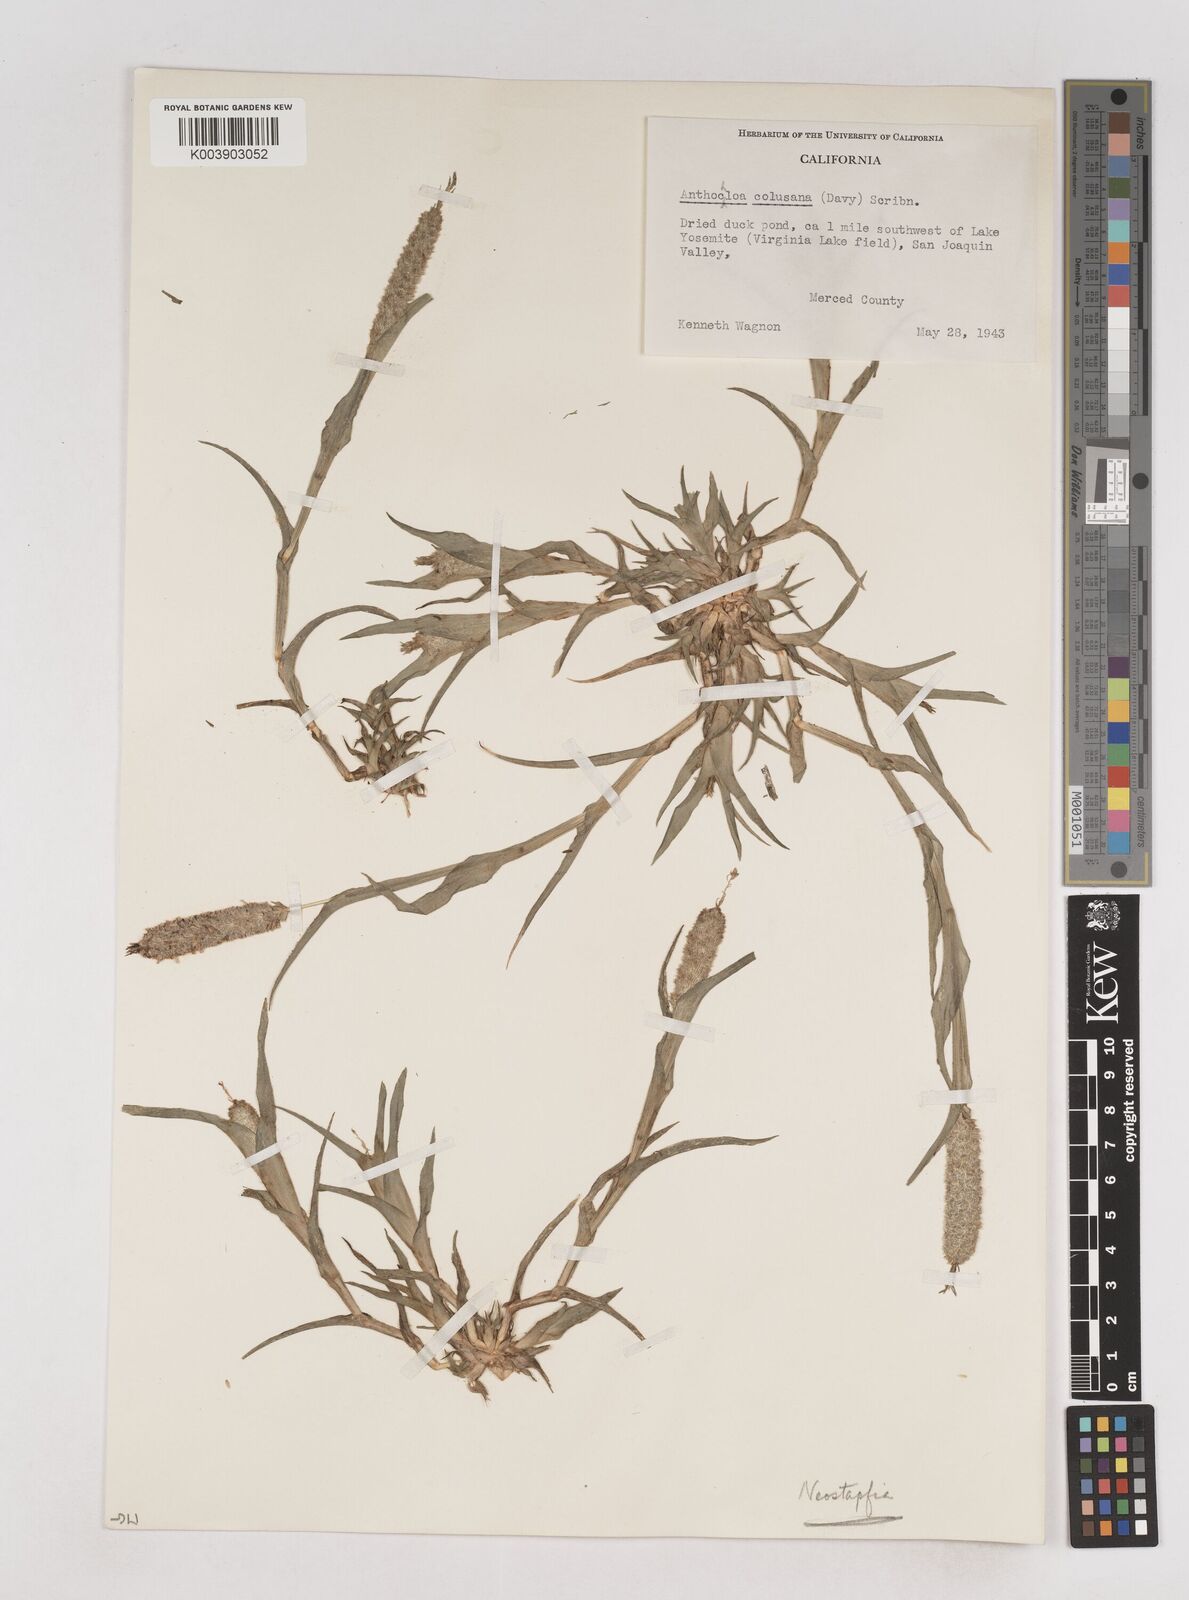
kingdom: Plantae
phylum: Tracheophyta
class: Liliopsida
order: Poales
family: Poaceae
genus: Neostapfia
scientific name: Neostapfia colusana
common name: Colusa grass
